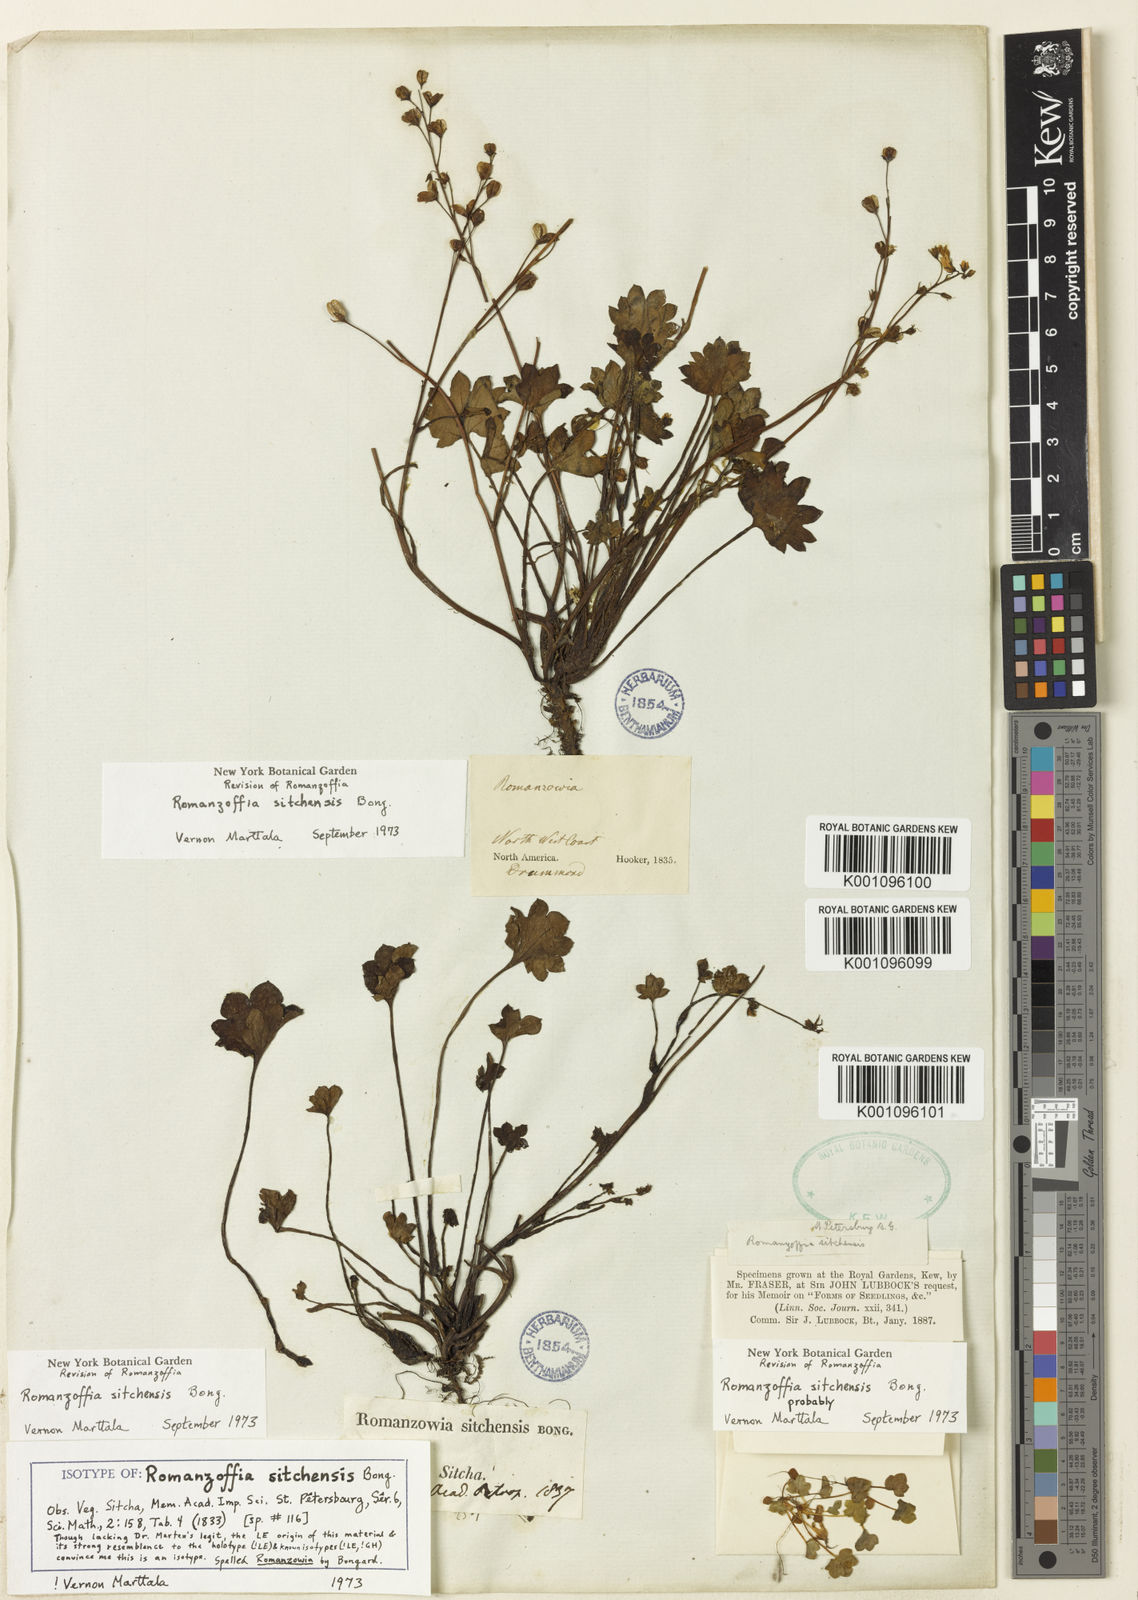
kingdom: Plantae
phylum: Tracheophyta
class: Magnoliopsida
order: Boraginales
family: Hydrophyllaceae
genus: Romanzoffia
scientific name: Romanzoffia sitchensis
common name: Sitka mistmaid
